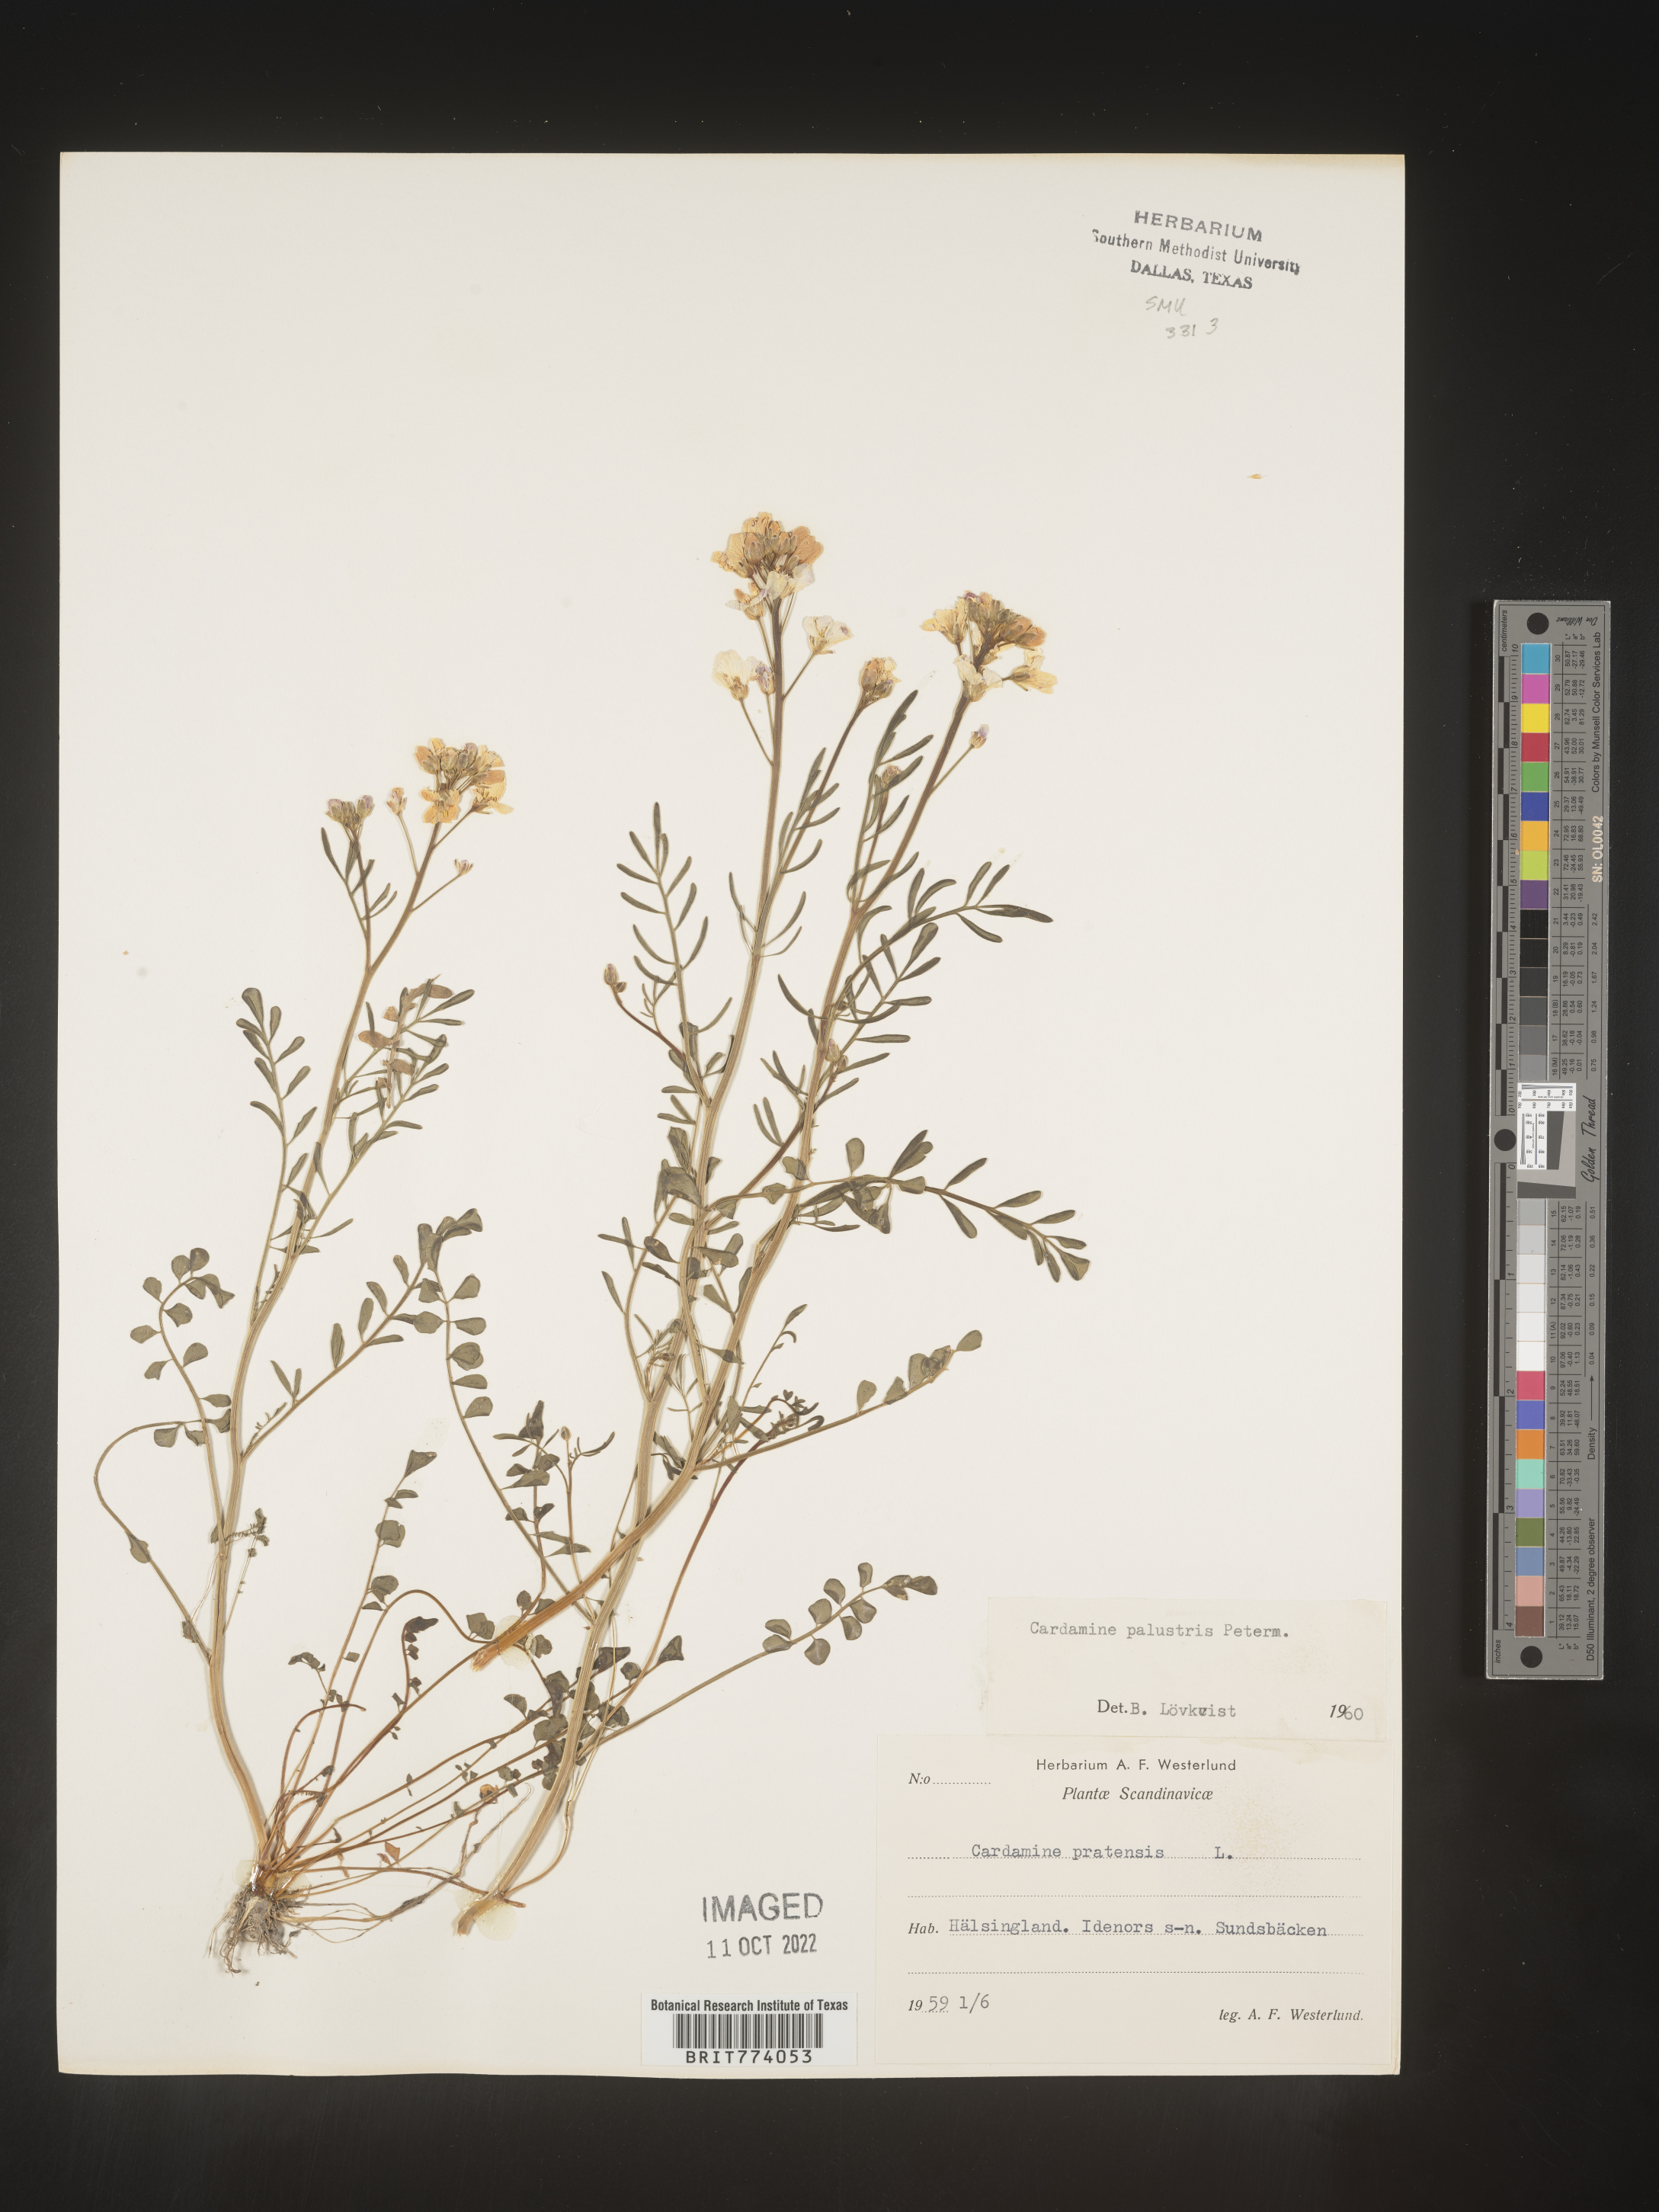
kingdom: Plantae
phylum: Tracheophyta
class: Magnoliopsida
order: Brassicales
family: Brassicaceae
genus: Cardamine
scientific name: Cardamine pratensis
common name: Cuckoo flower
